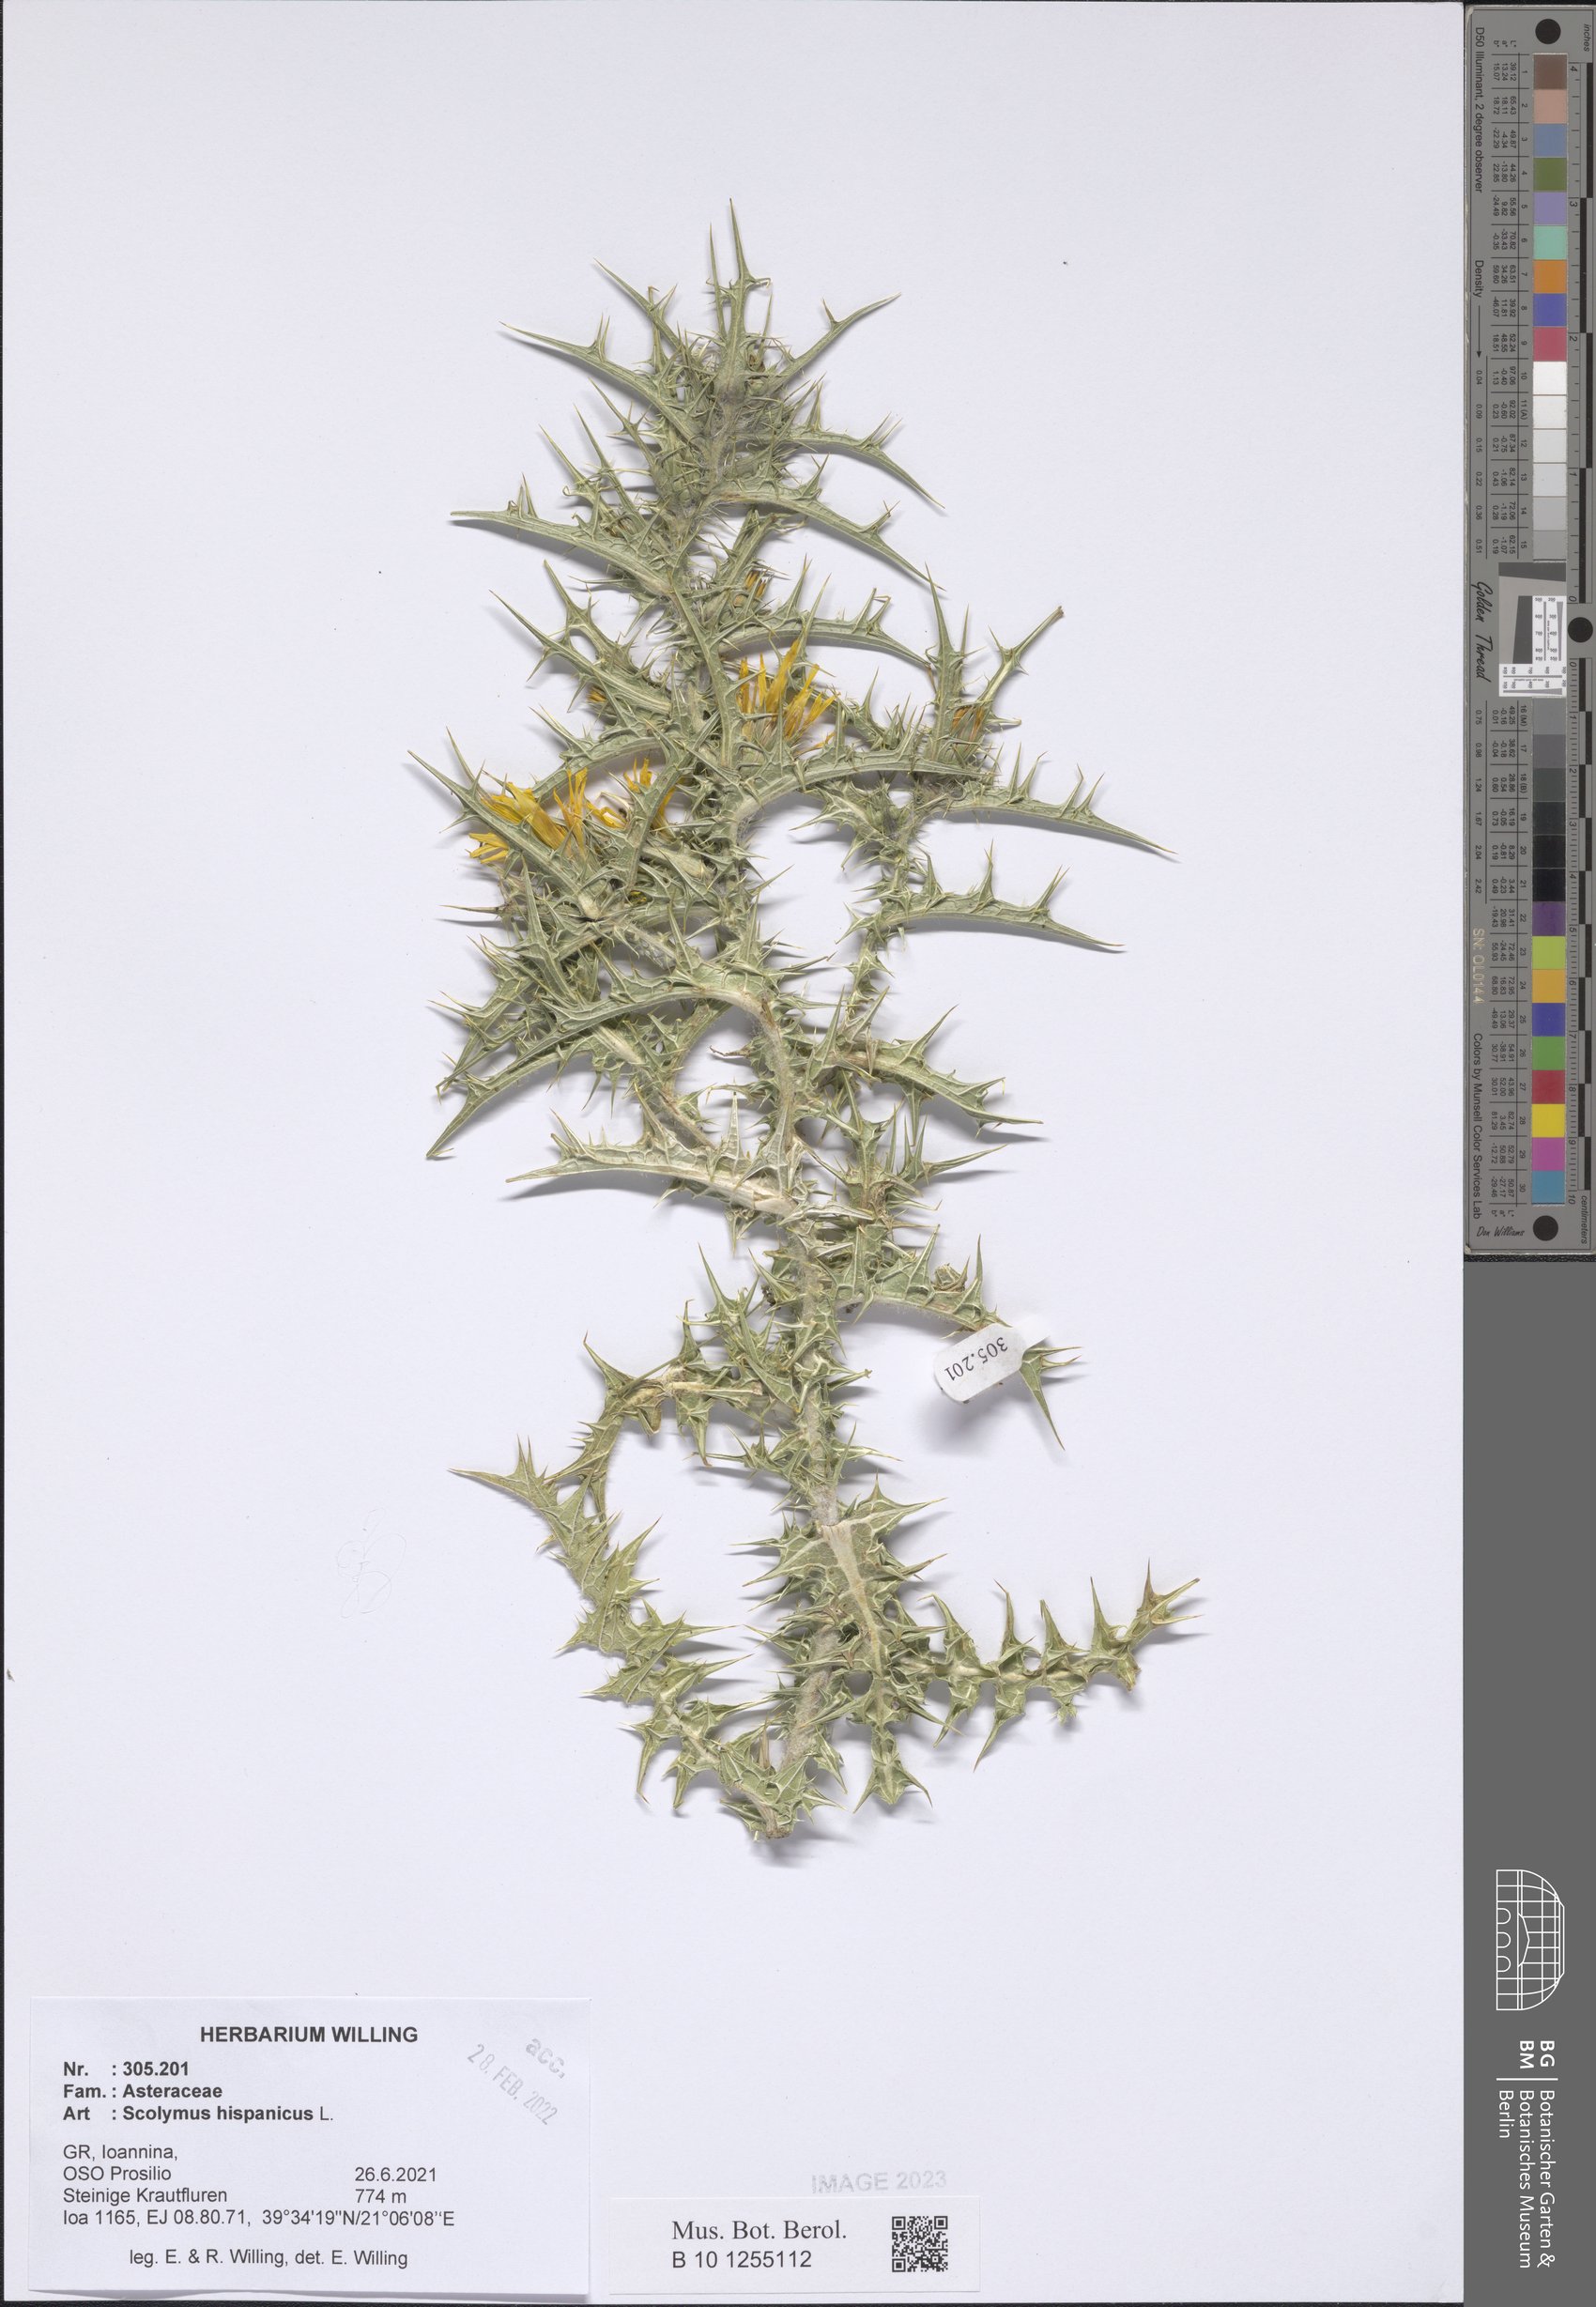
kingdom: Plantae
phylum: Tracheophyta
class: Magnoliopsida
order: Asterales
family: Asteraceae
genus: Scolymus
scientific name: Scolymus hispanicus
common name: Golden thistle
